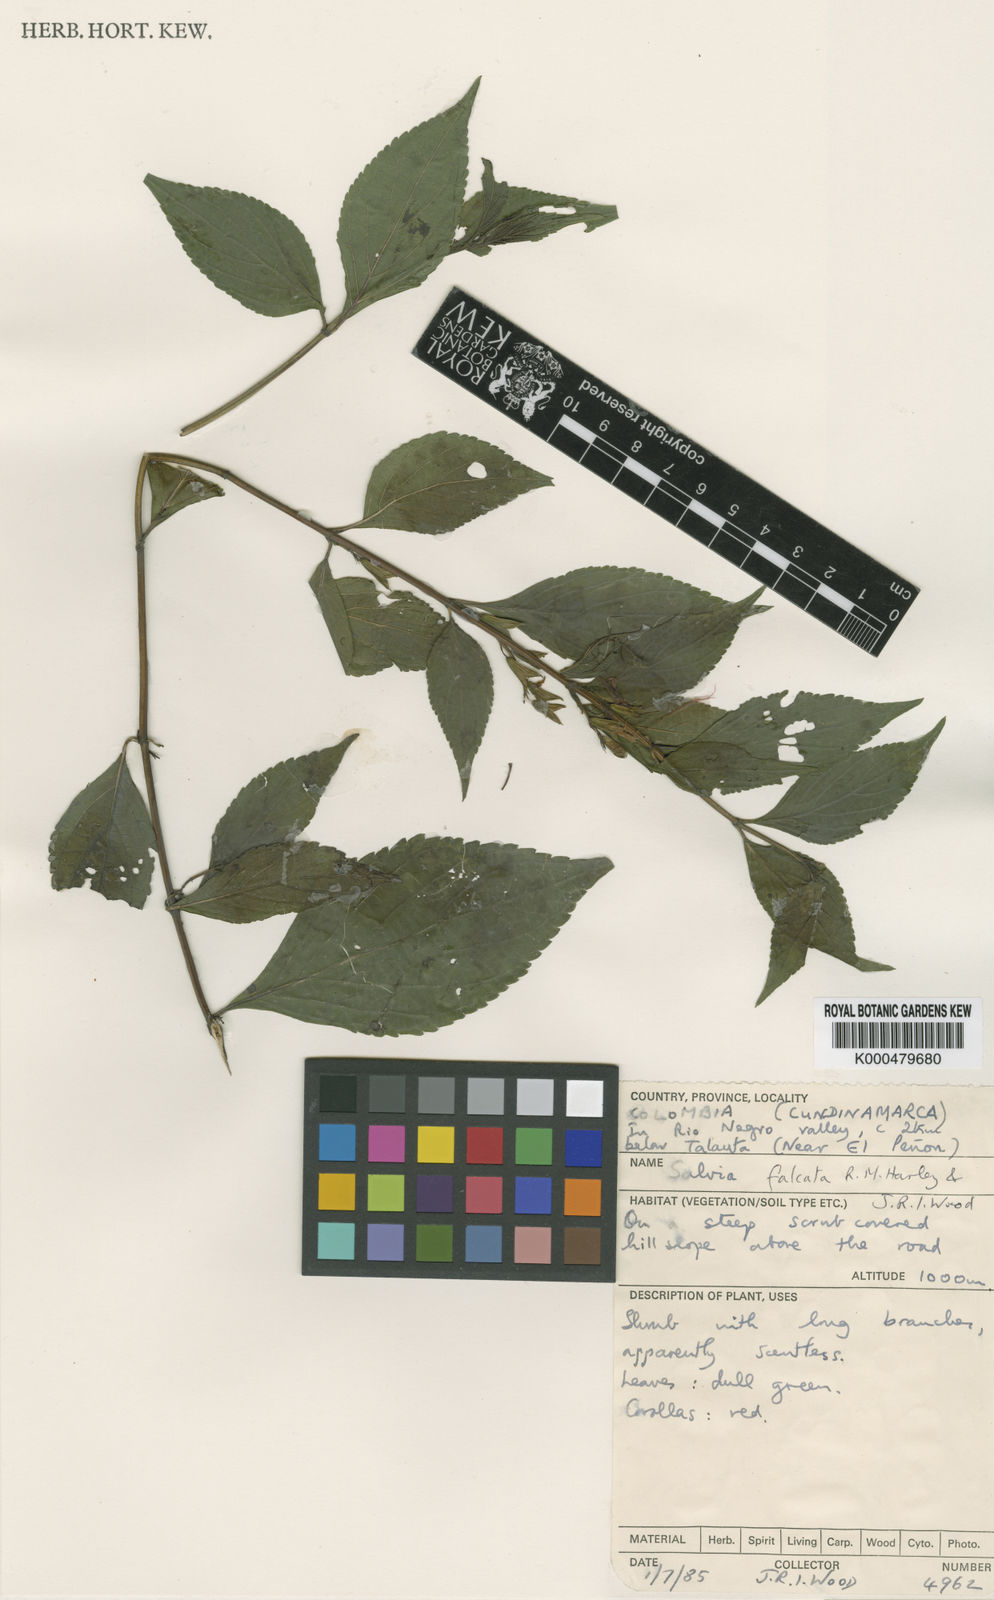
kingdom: Plantae
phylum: Tracheophyta
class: Magnoliopsida
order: Lamiales
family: Lamiaceae
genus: Salvia
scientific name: Salvia falcata
